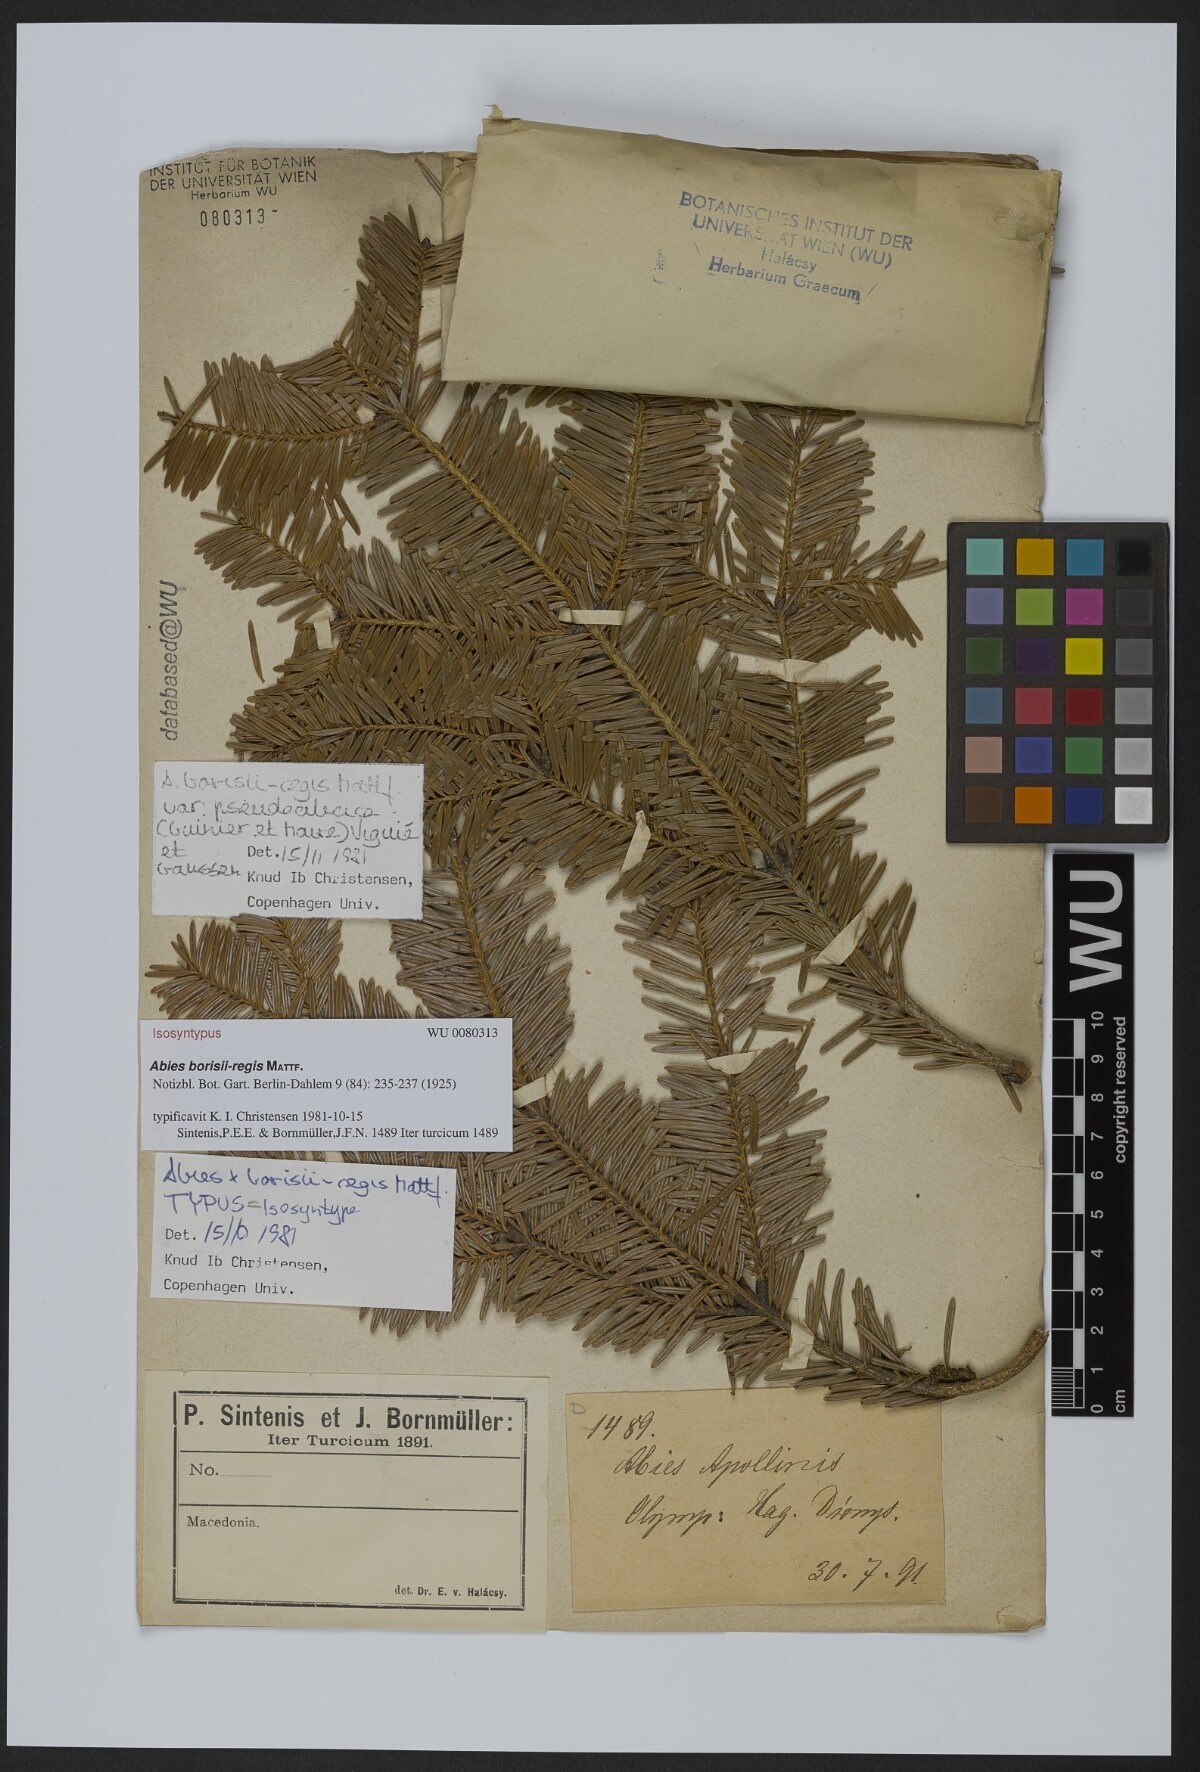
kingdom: Plantae
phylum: Tracheophyta
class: Pinopsida
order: Pinales
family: Pinaceae
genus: Abies
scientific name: Abies borisii-regis
